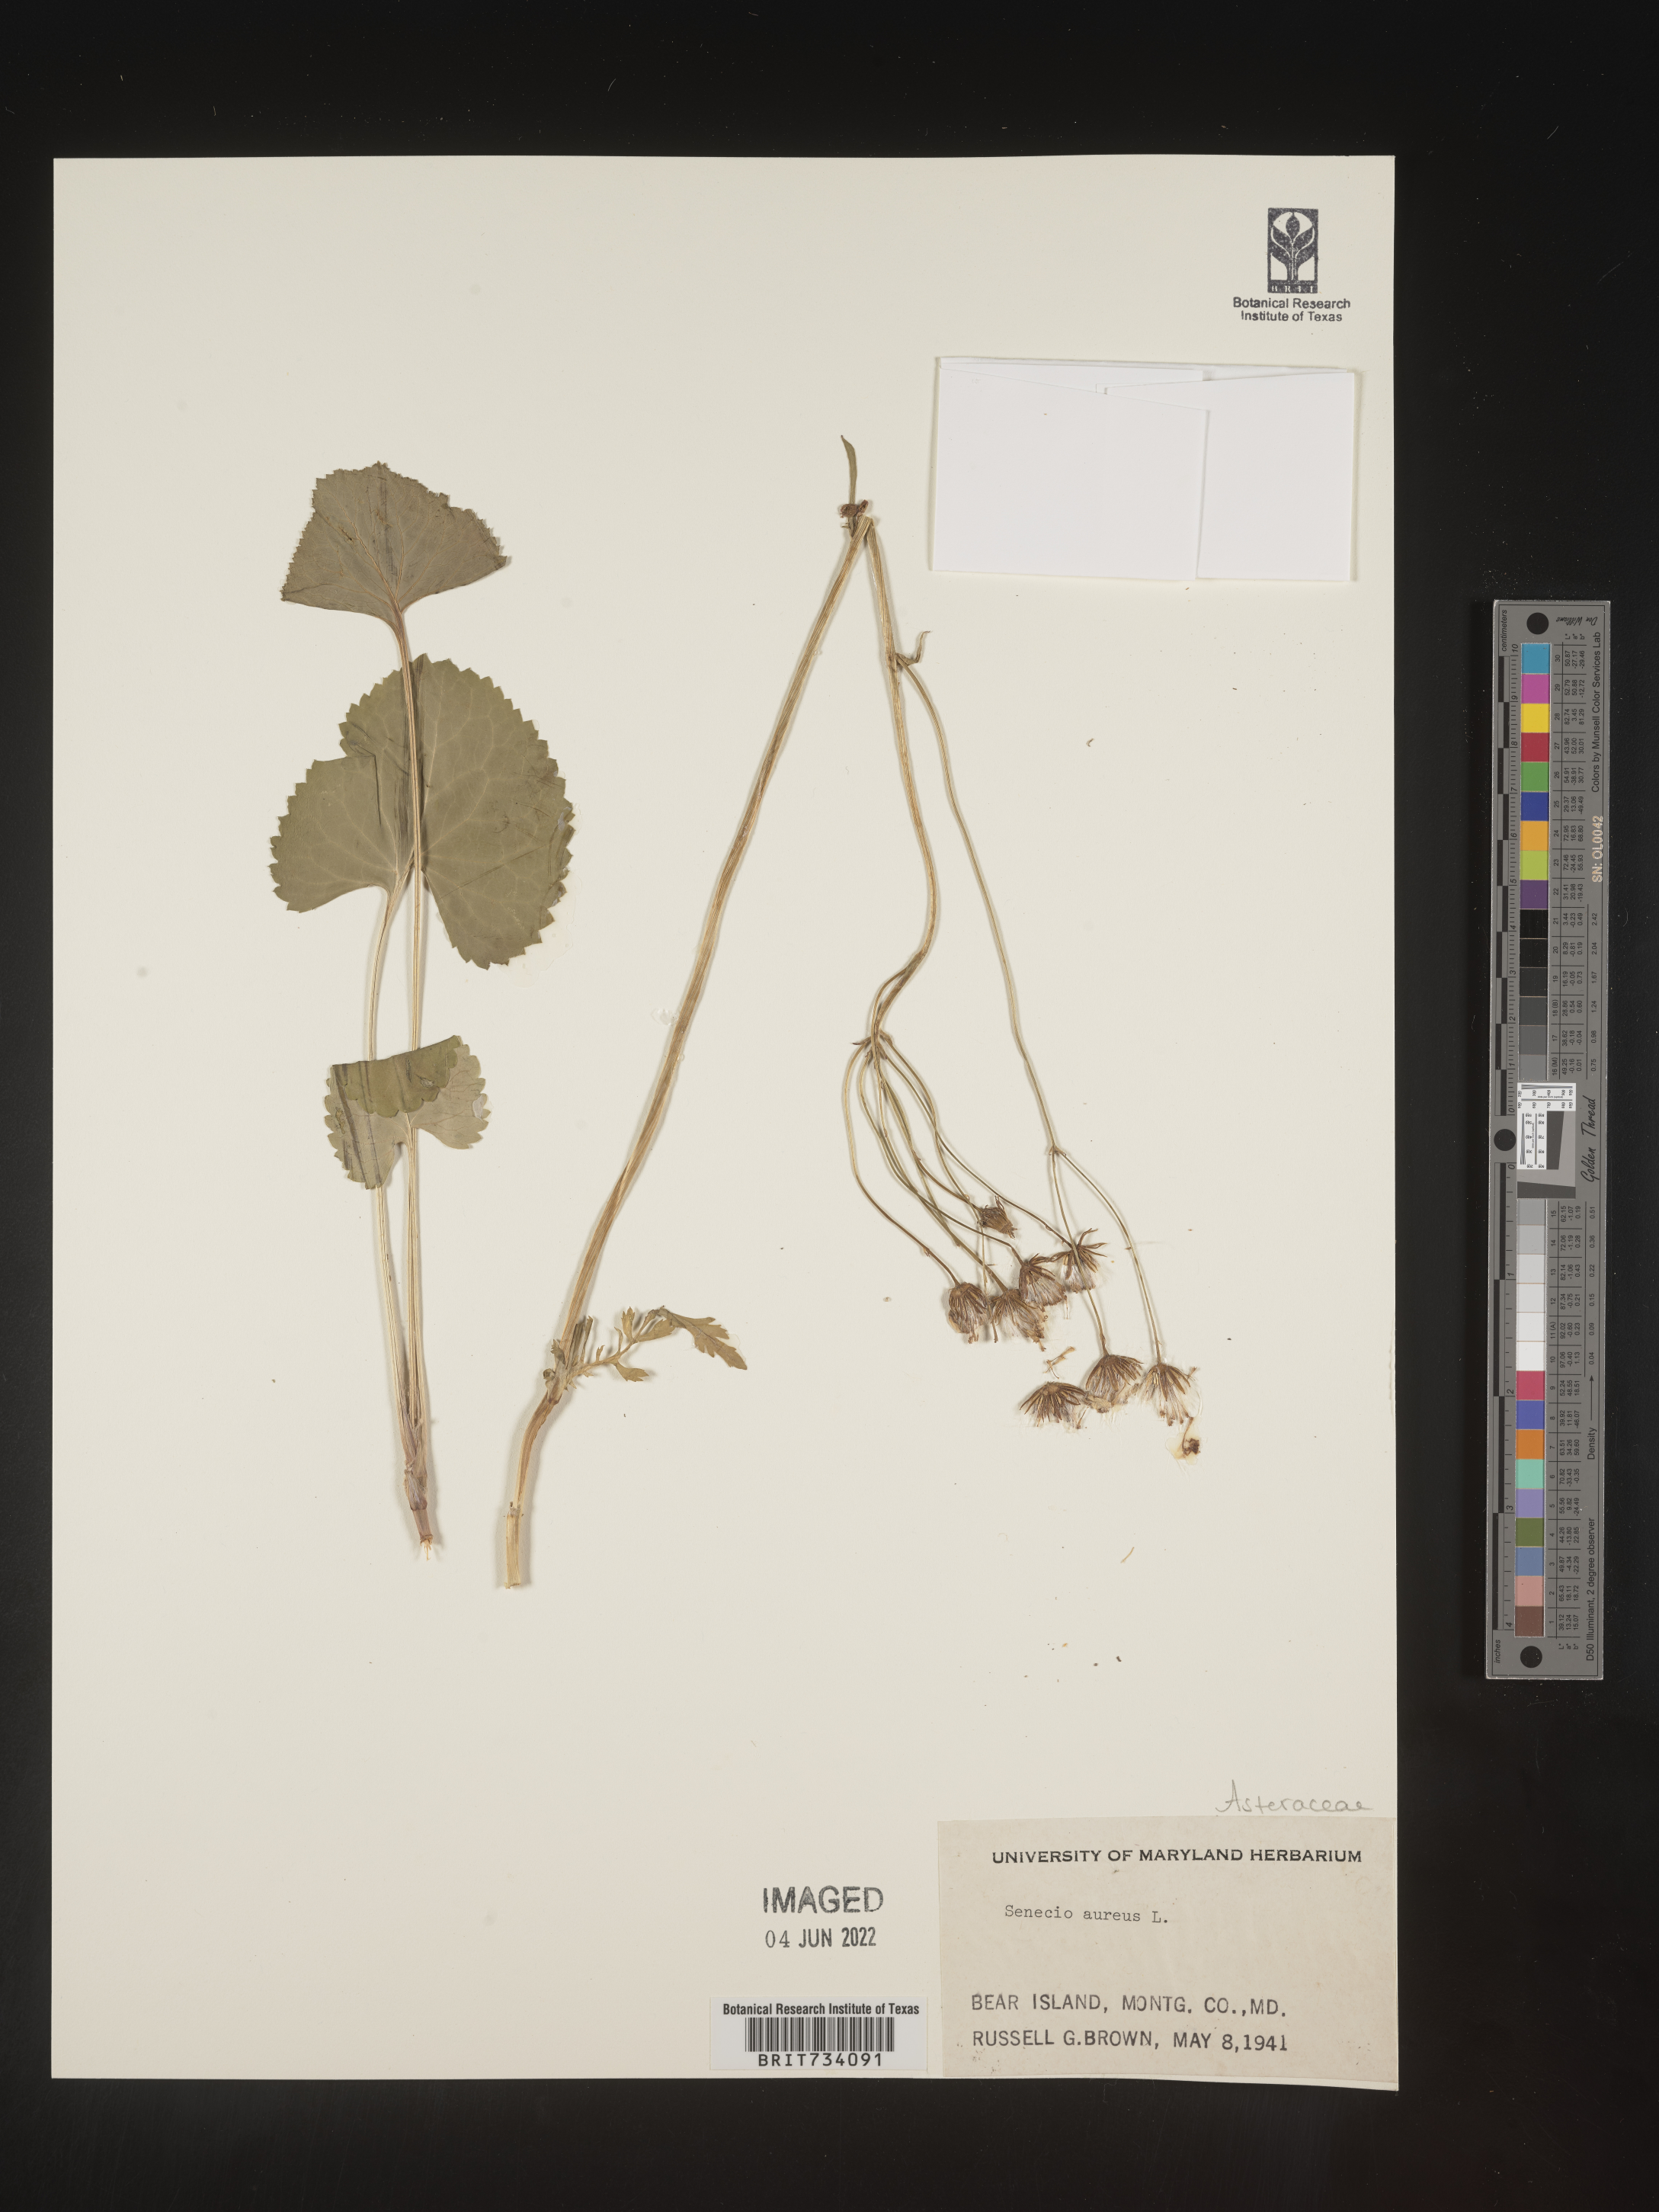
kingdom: Plantae
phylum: Tracheophyta
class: Magnoliopsida
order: Asterales
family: Asteraceae
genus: Packera
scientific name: Packera aurea
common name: Golden groundsel
